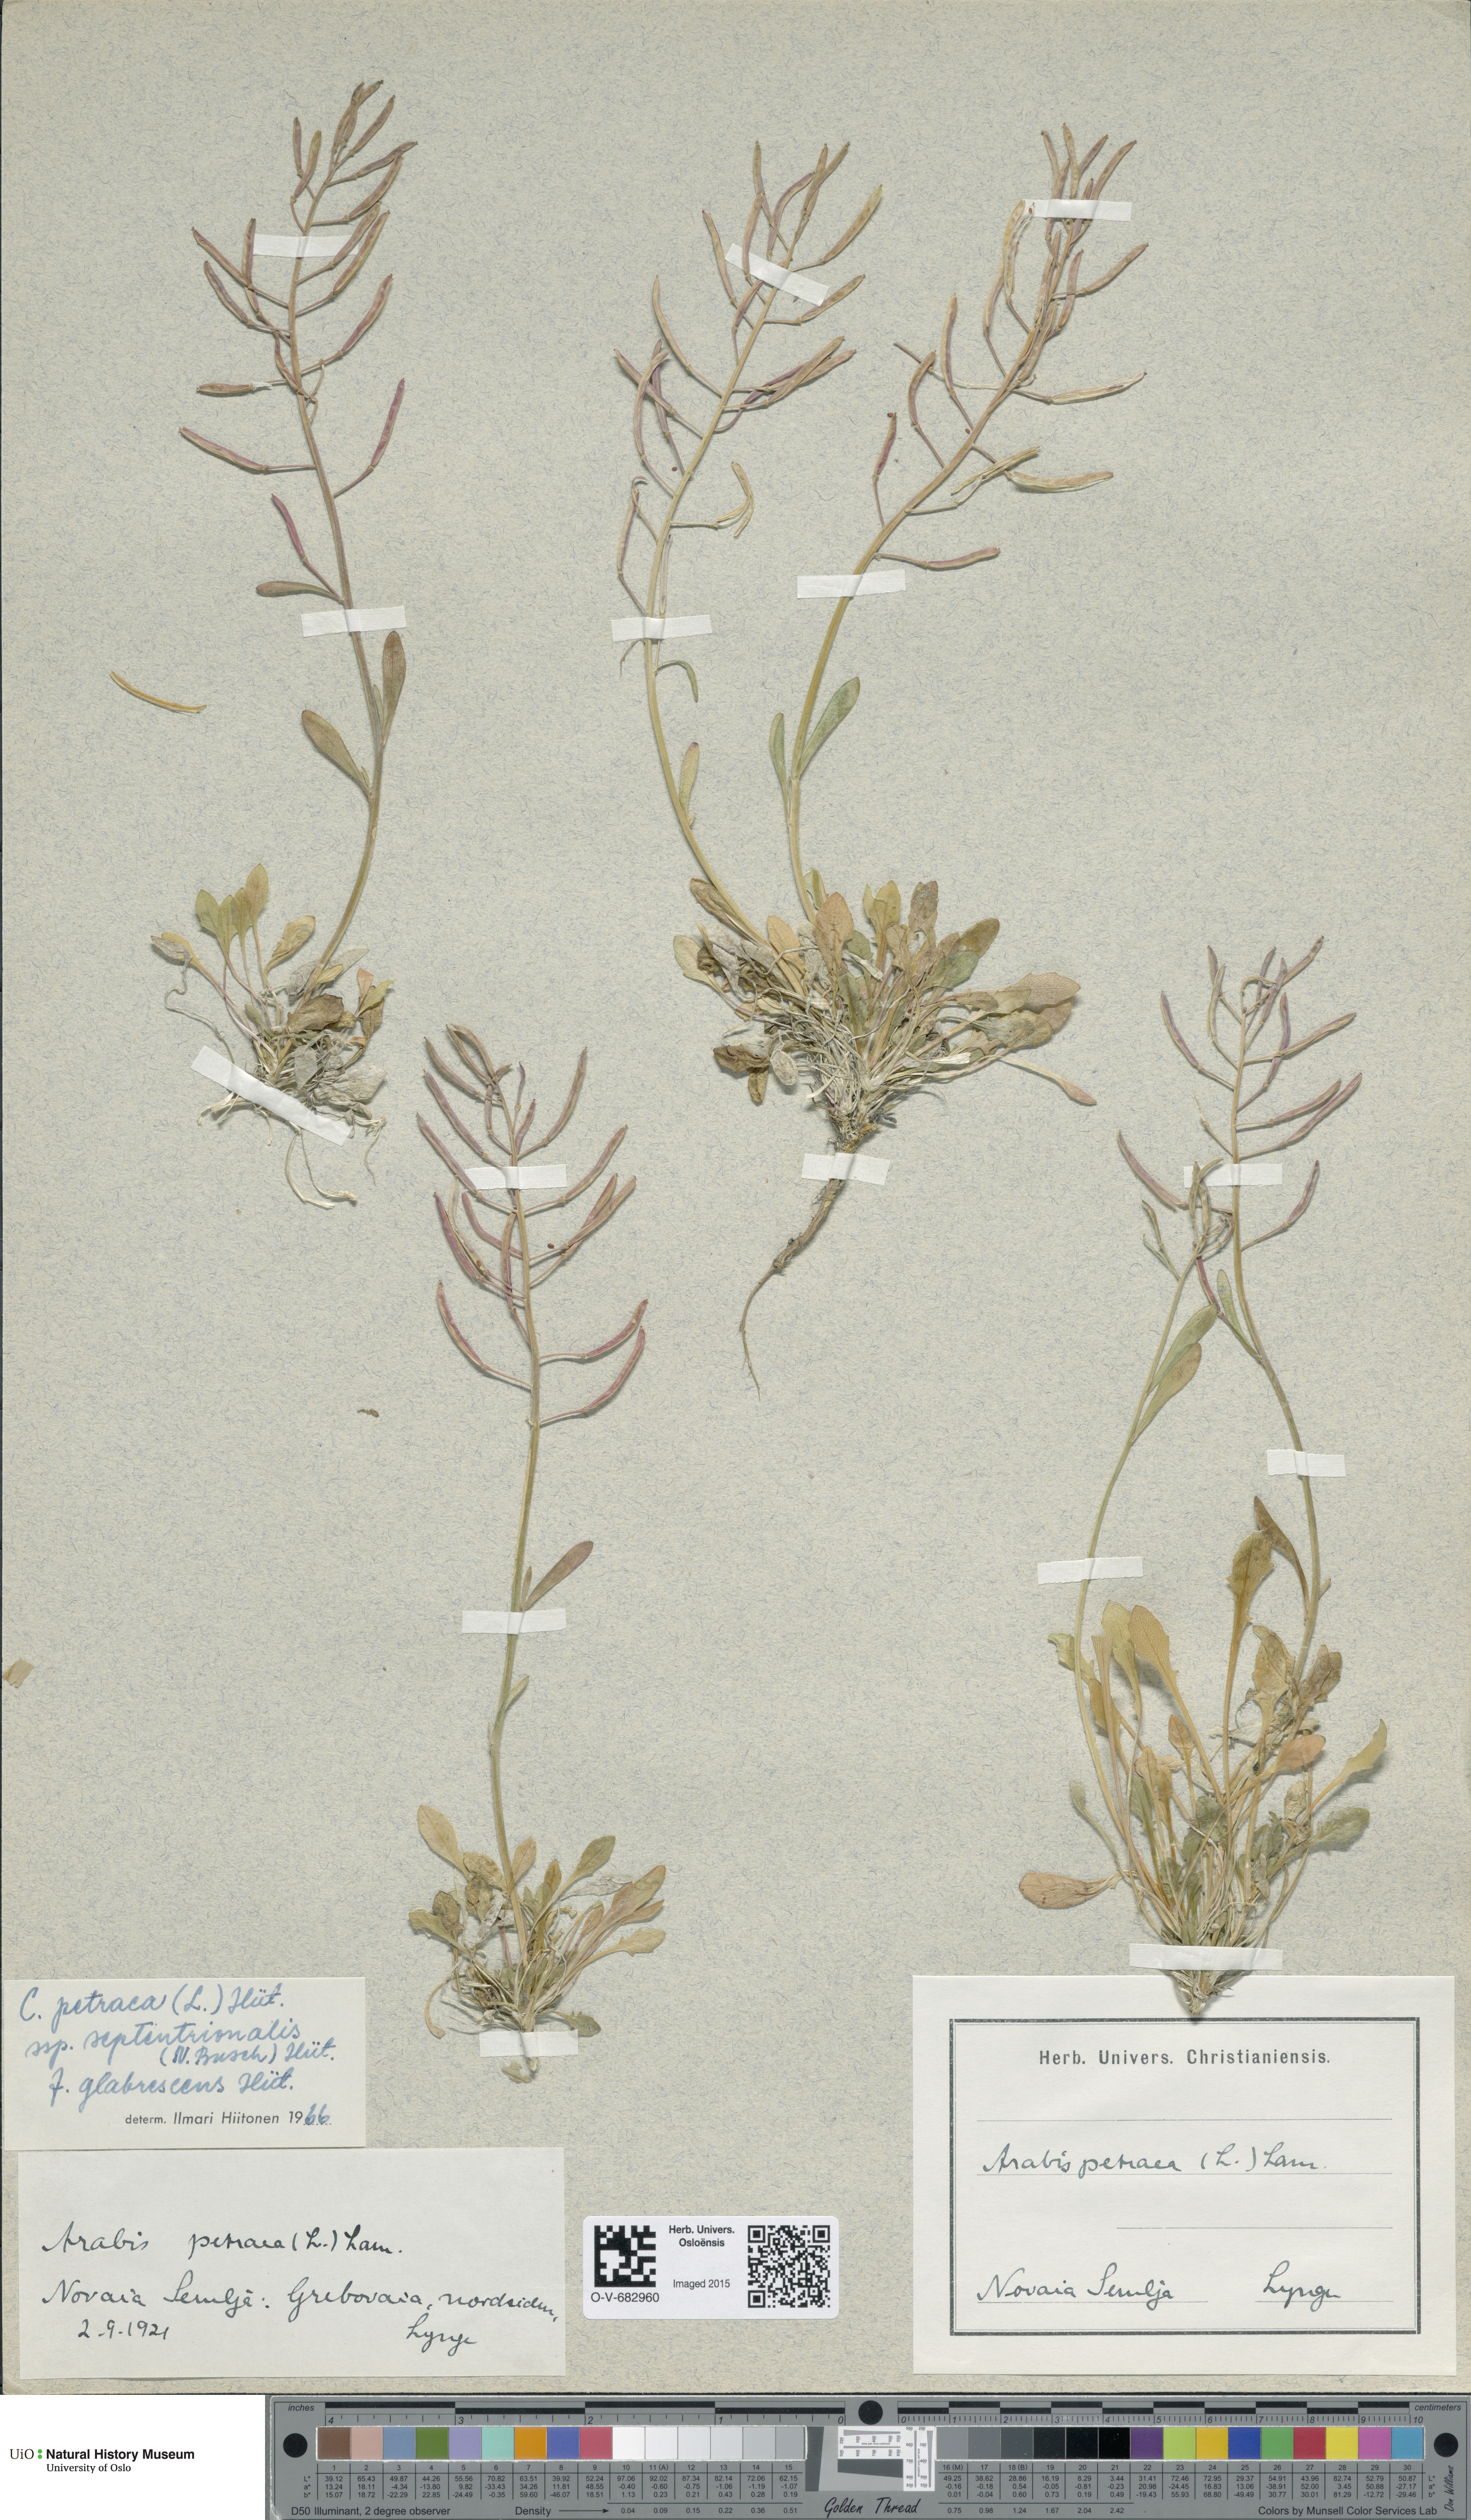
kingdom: Plantae
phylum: Tracheophyta
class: Magnoliopsida
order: Brassicales
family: Brassicaceae
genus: Arabidopsis
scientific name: Arabidopsis lyrata
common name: Lyrate rockcress
